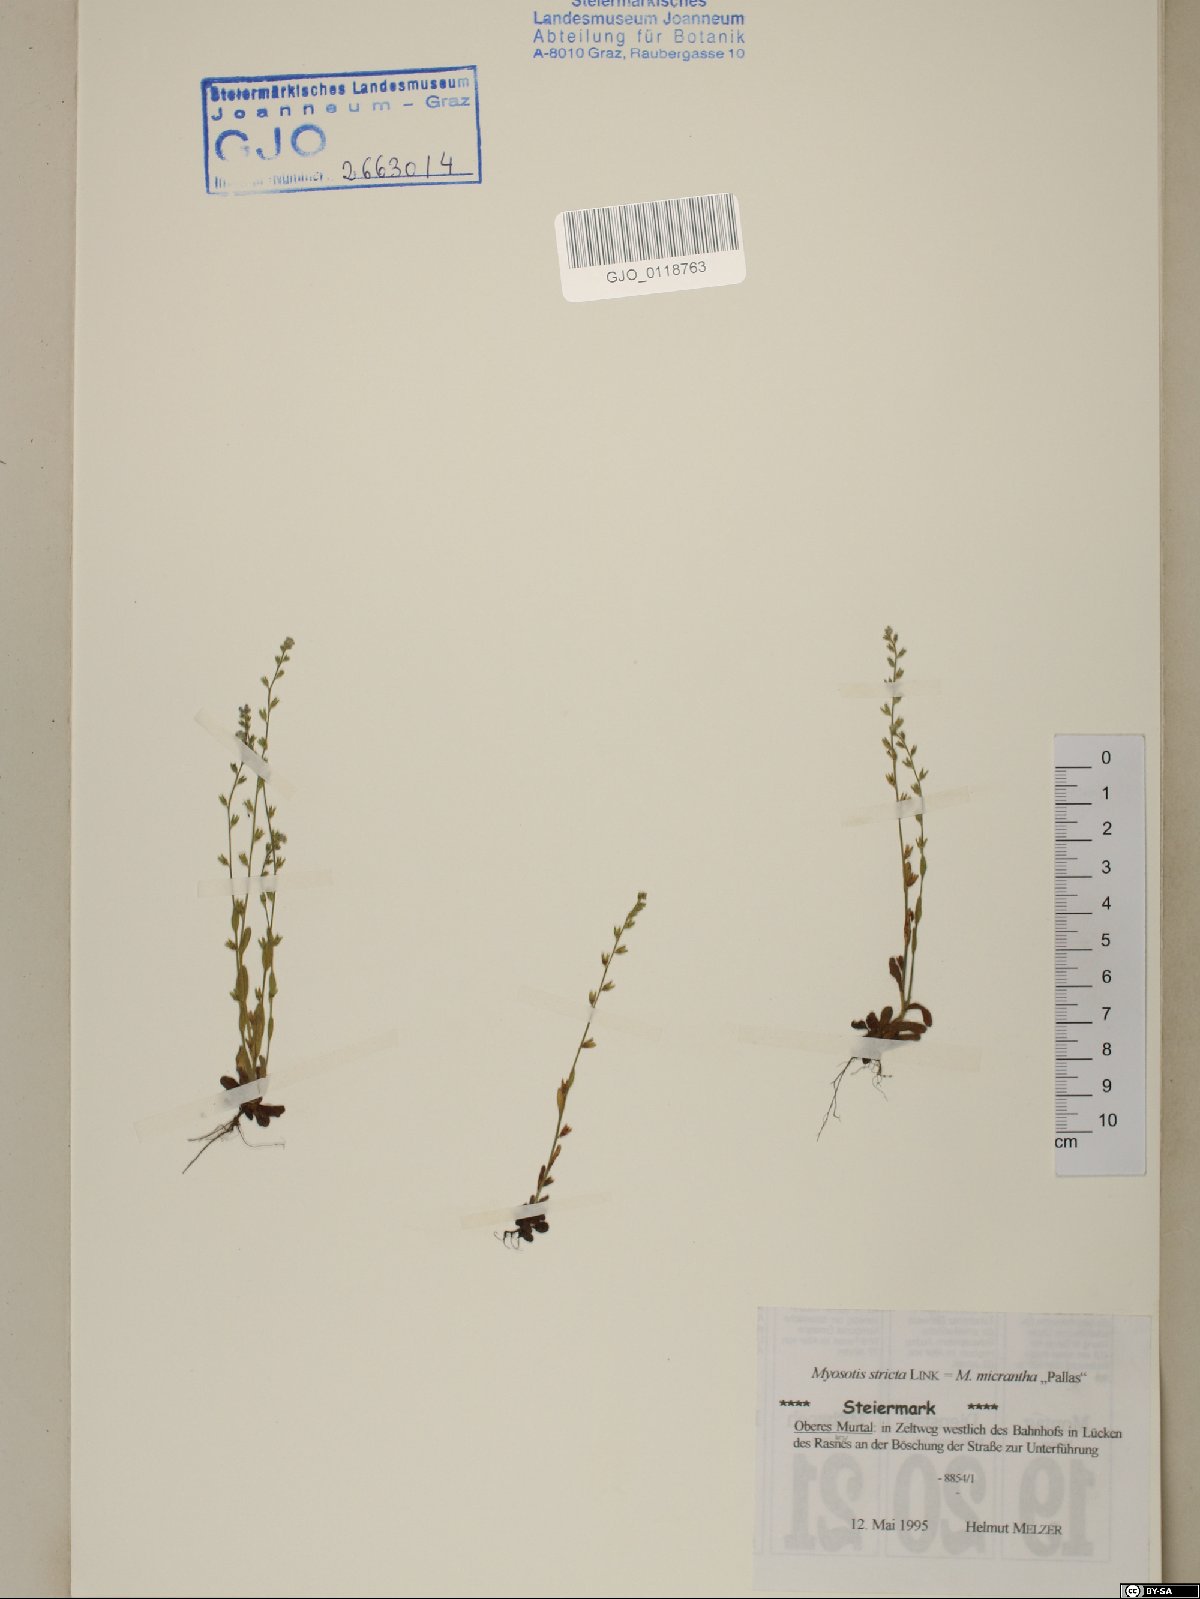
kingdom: Plantae
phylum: Tracheophyta
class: Magnoliopsida
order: Boraginales
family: Boraginaceae
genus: Myosotis
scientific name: Myosotis stricta
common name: Strict forget-me-not
